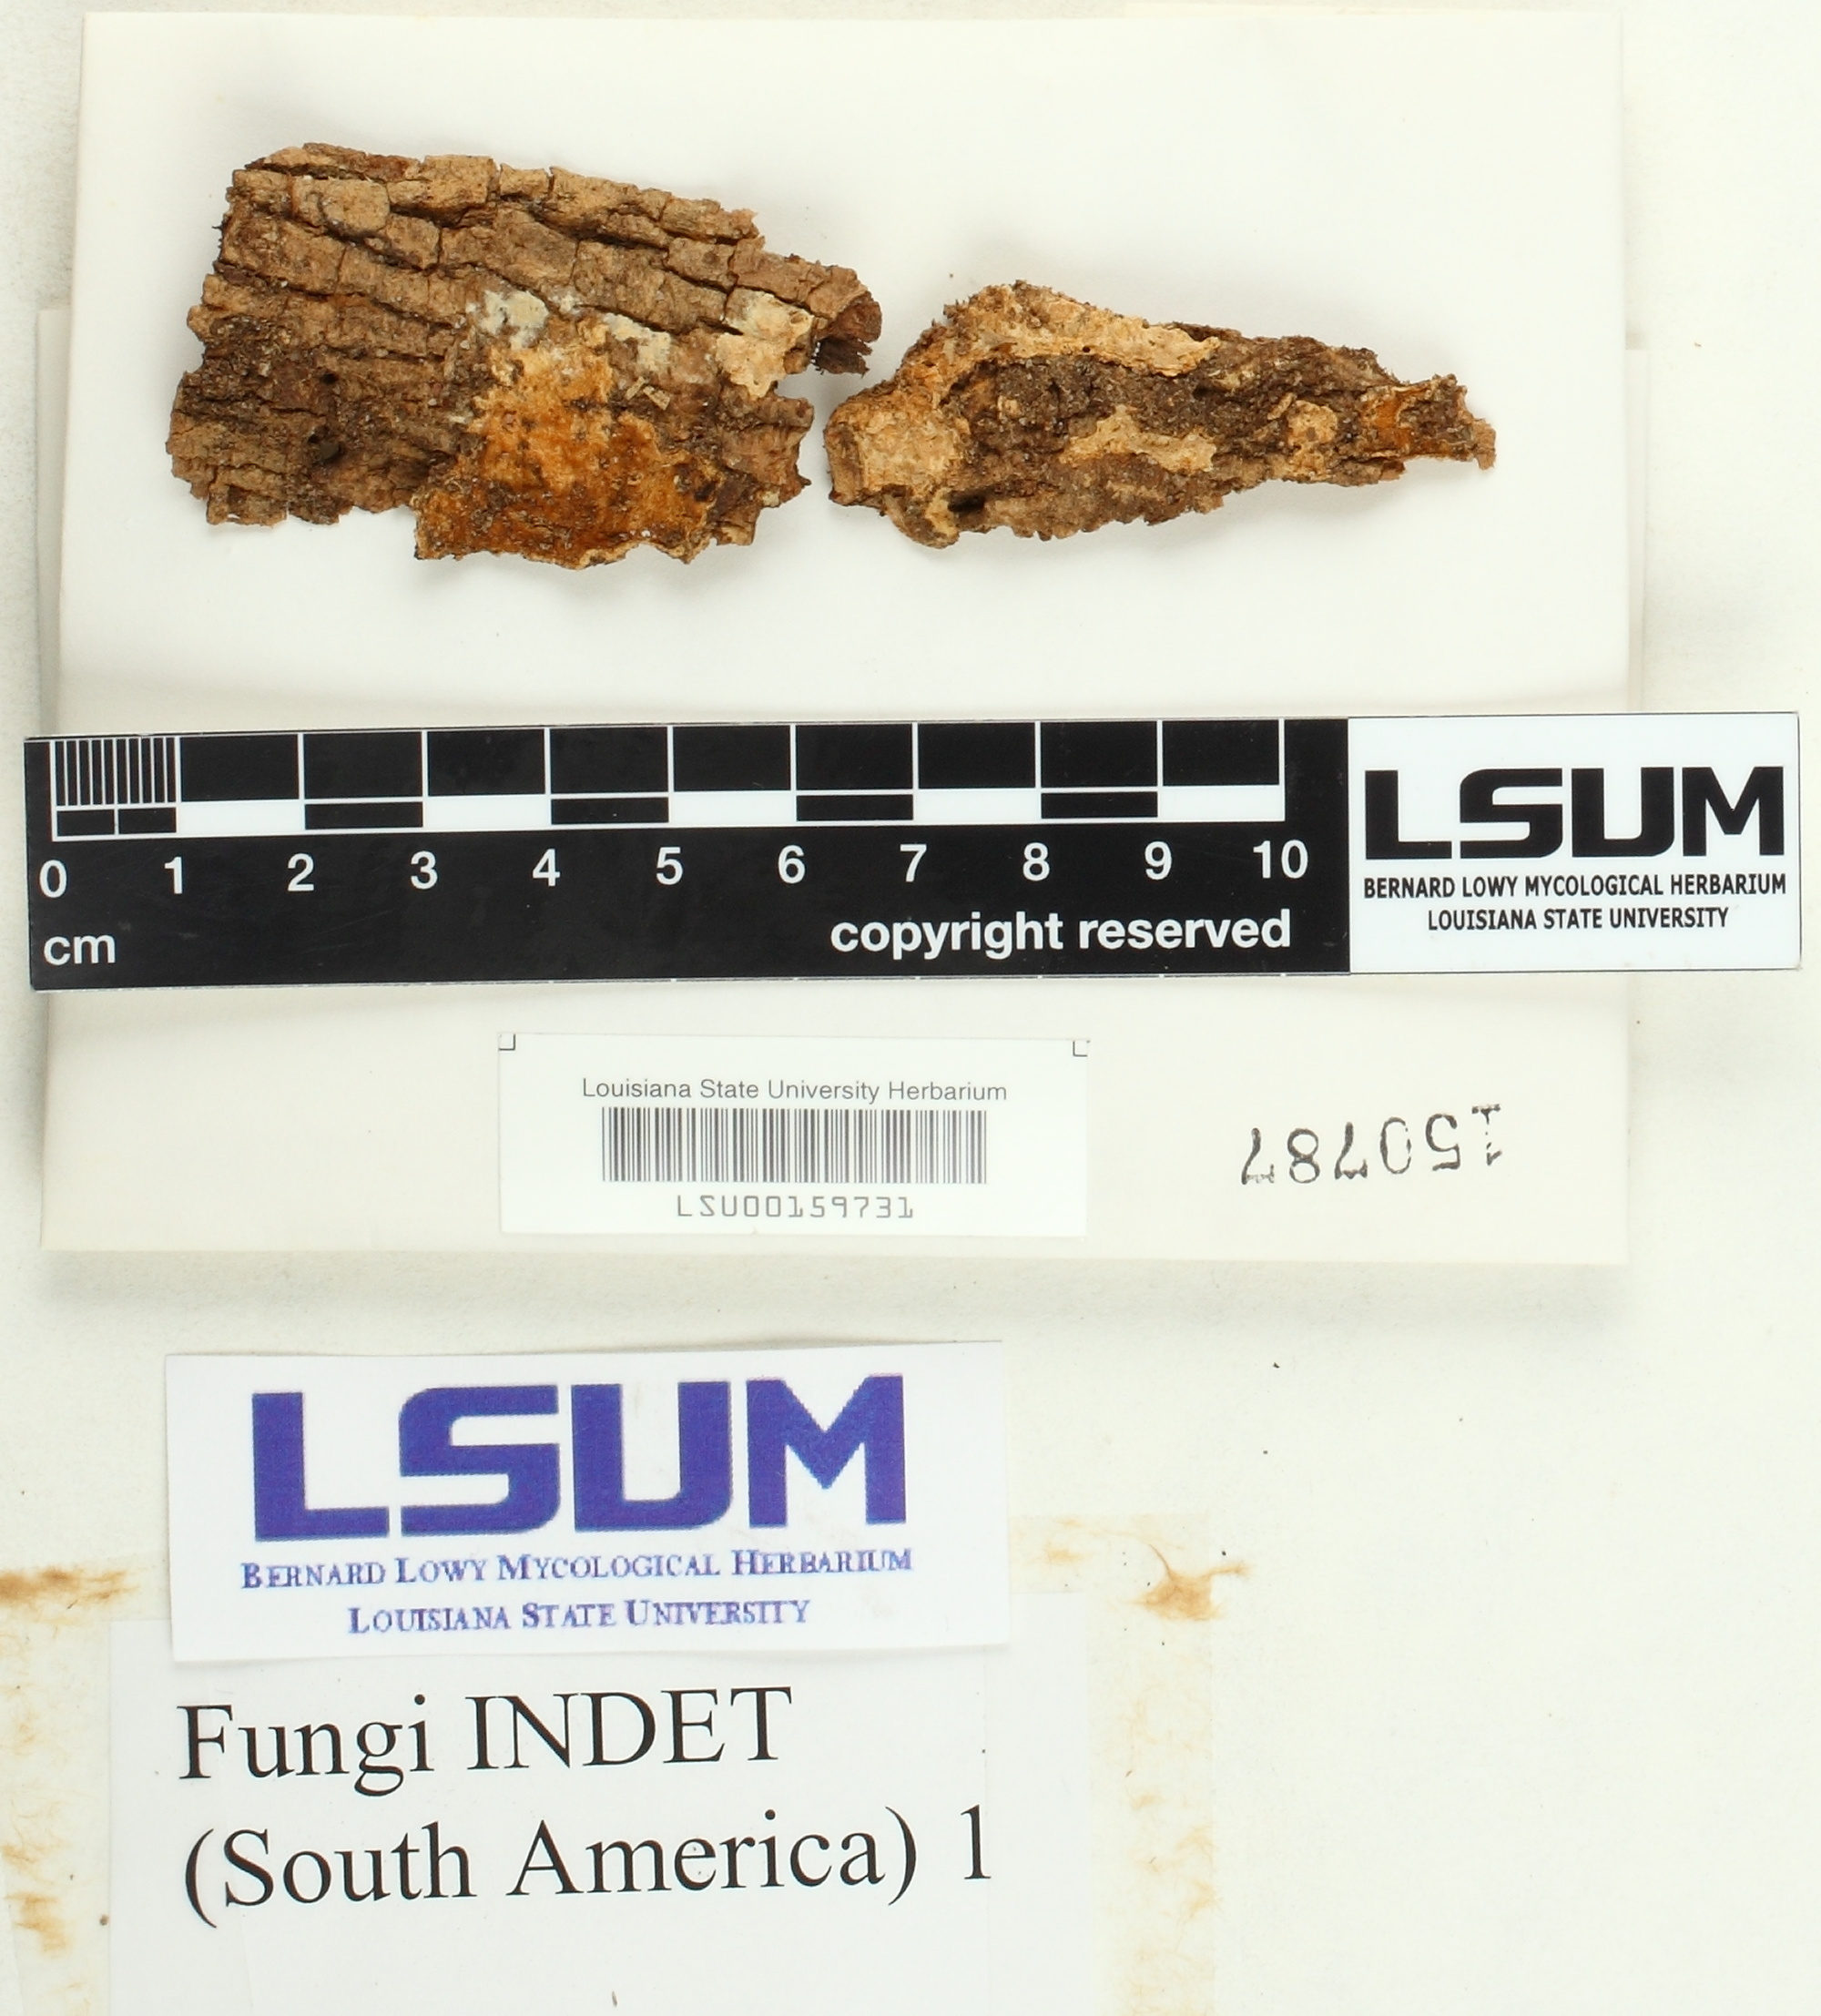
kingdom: Fungi
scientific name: Fungi
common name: Fungi
